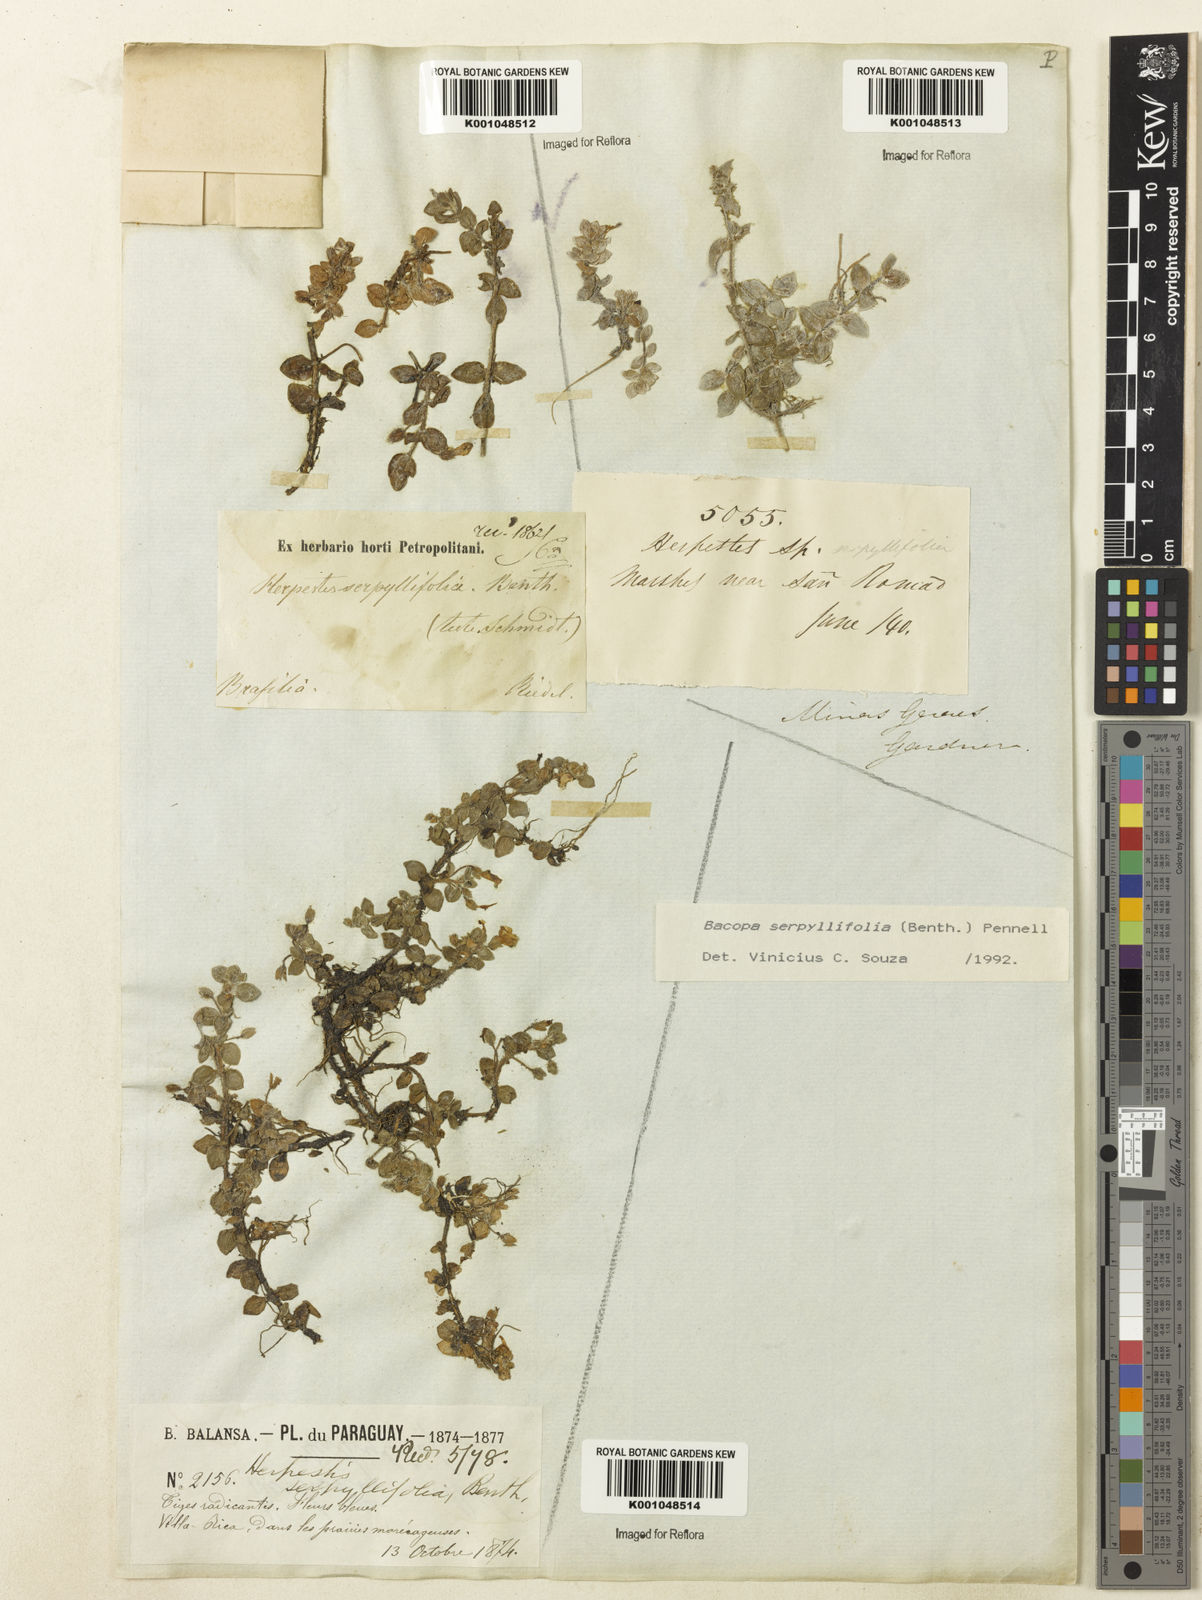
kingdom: Plantae
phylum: Tracheophyta
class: Magnoliopsida
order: Lamiales
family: Plantaginaceae
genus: Bacopa
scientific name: Bacopa serpyllifolia
